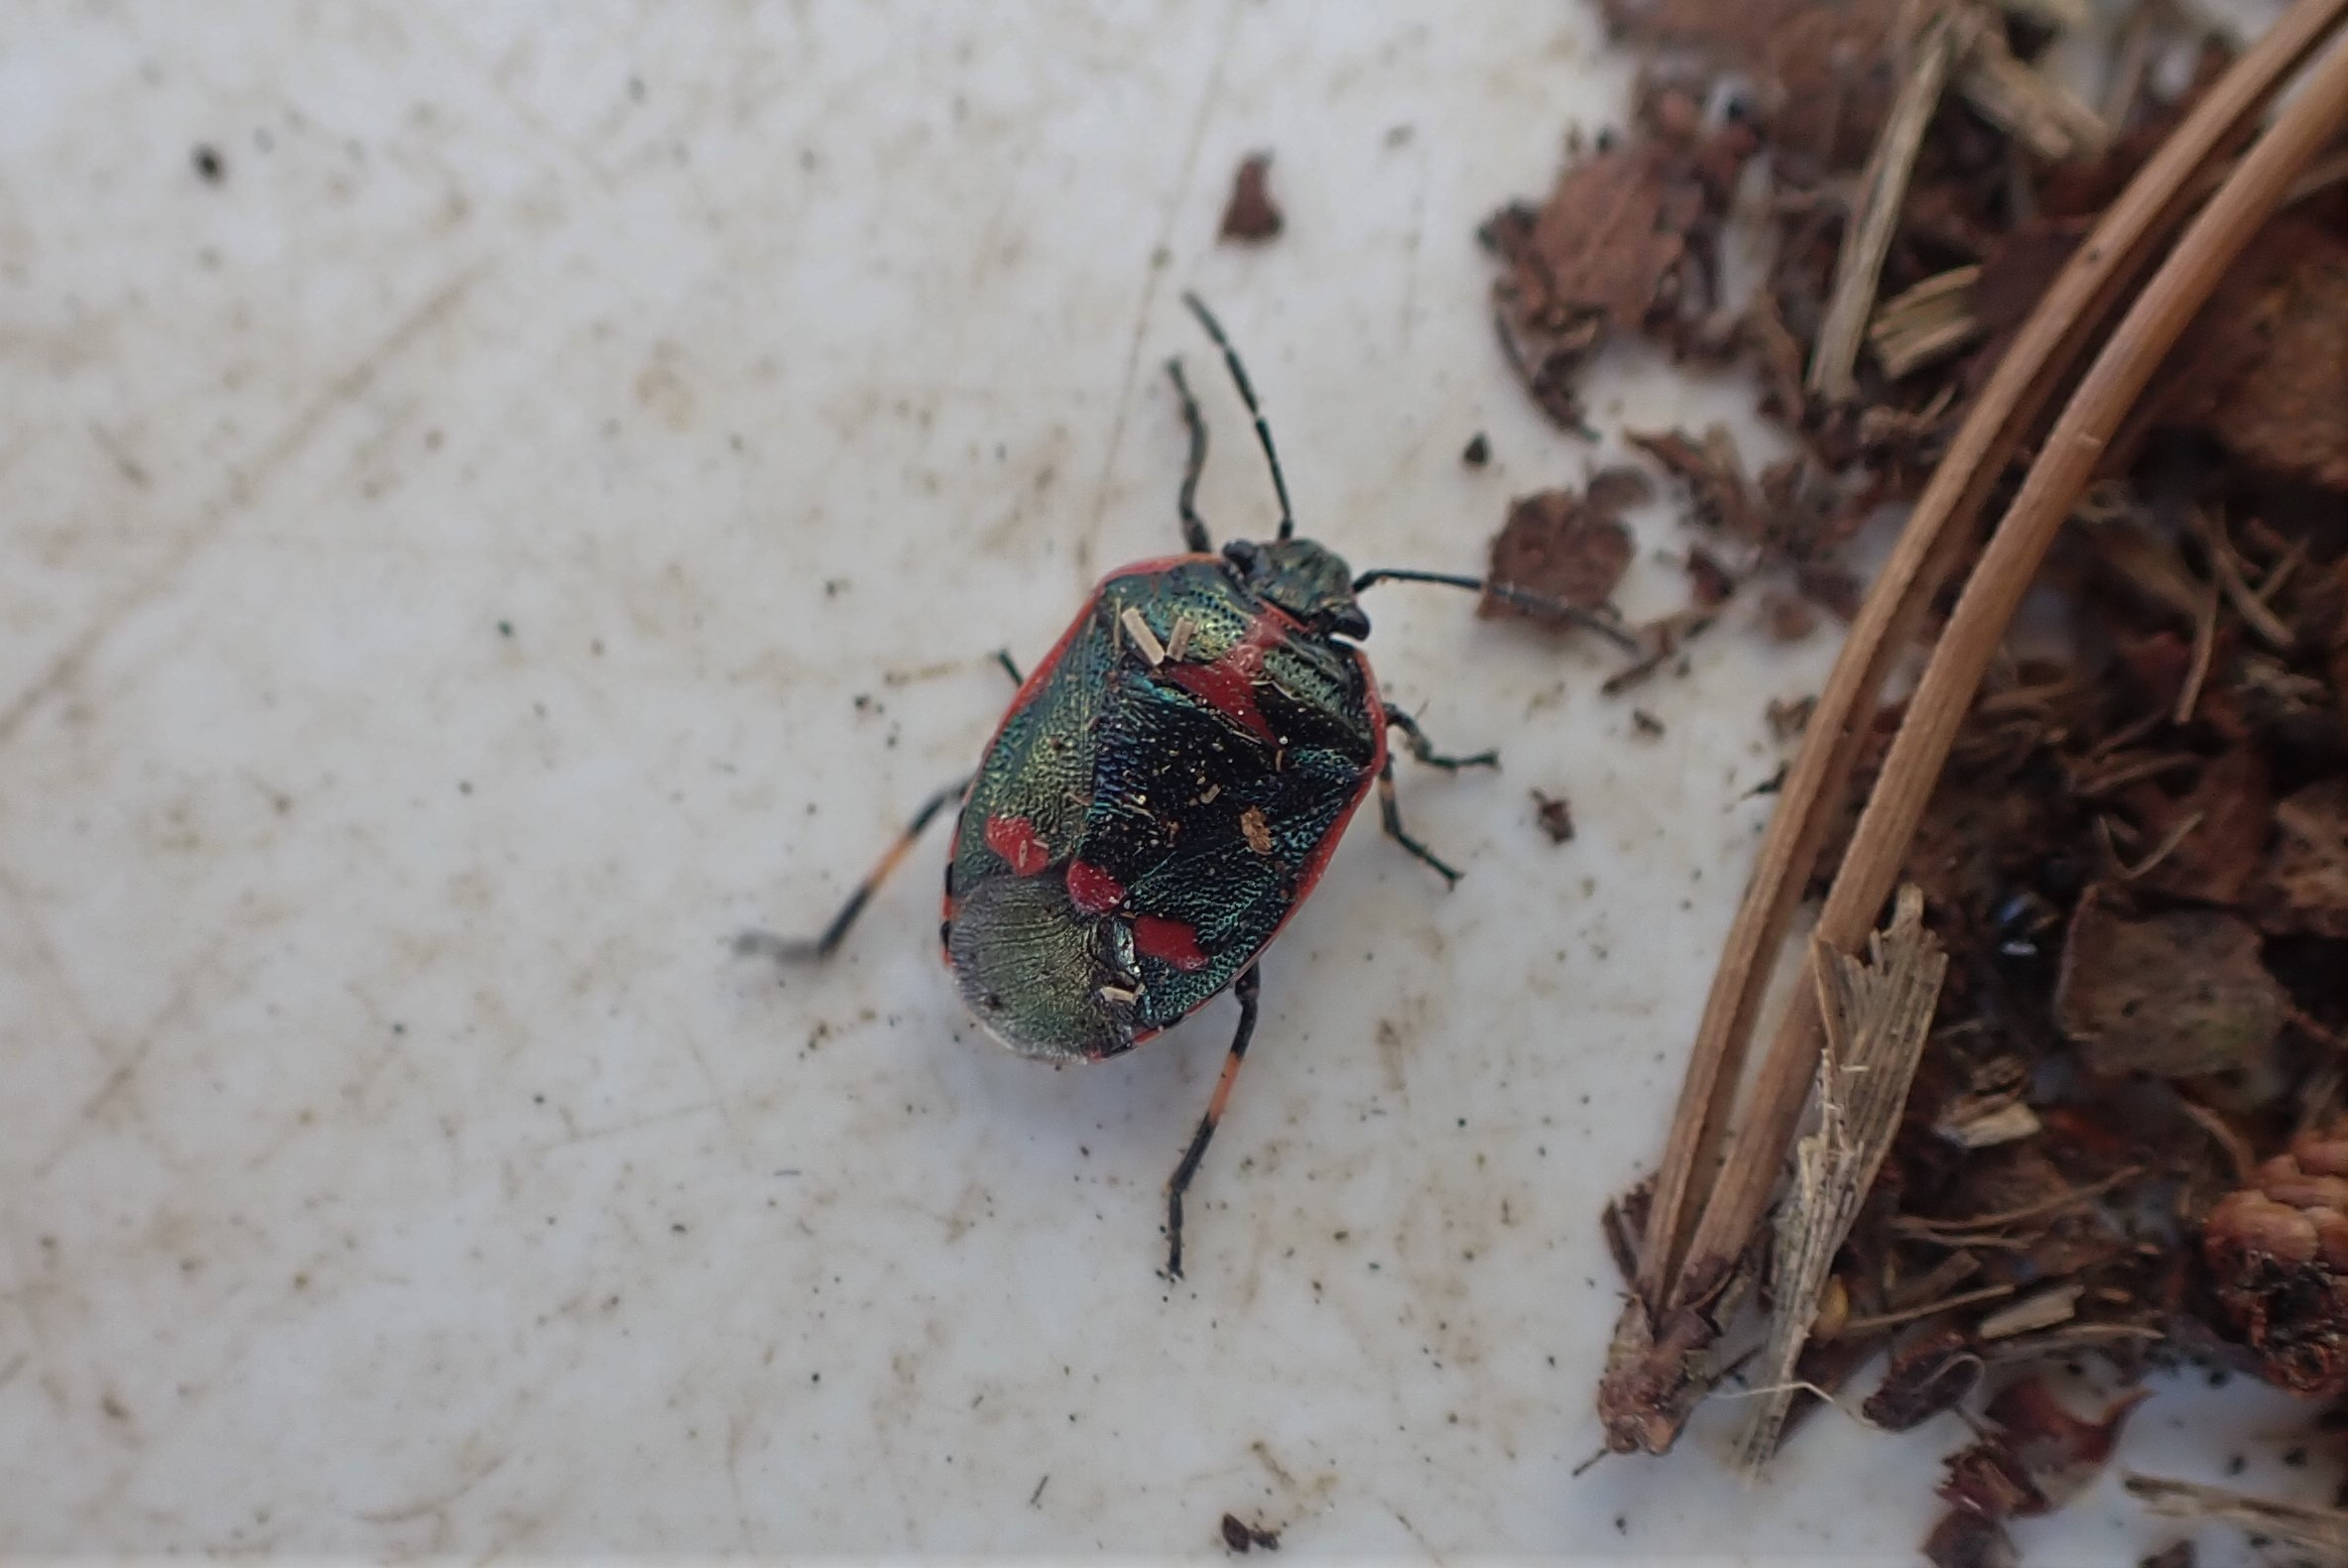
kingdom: Animalia
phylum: Arthropoda
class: Insecta
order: Hemiptera
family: Pentatomidae
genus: Eurydema
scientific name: Eurydema oleracea
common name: Almindelig kåltæge
